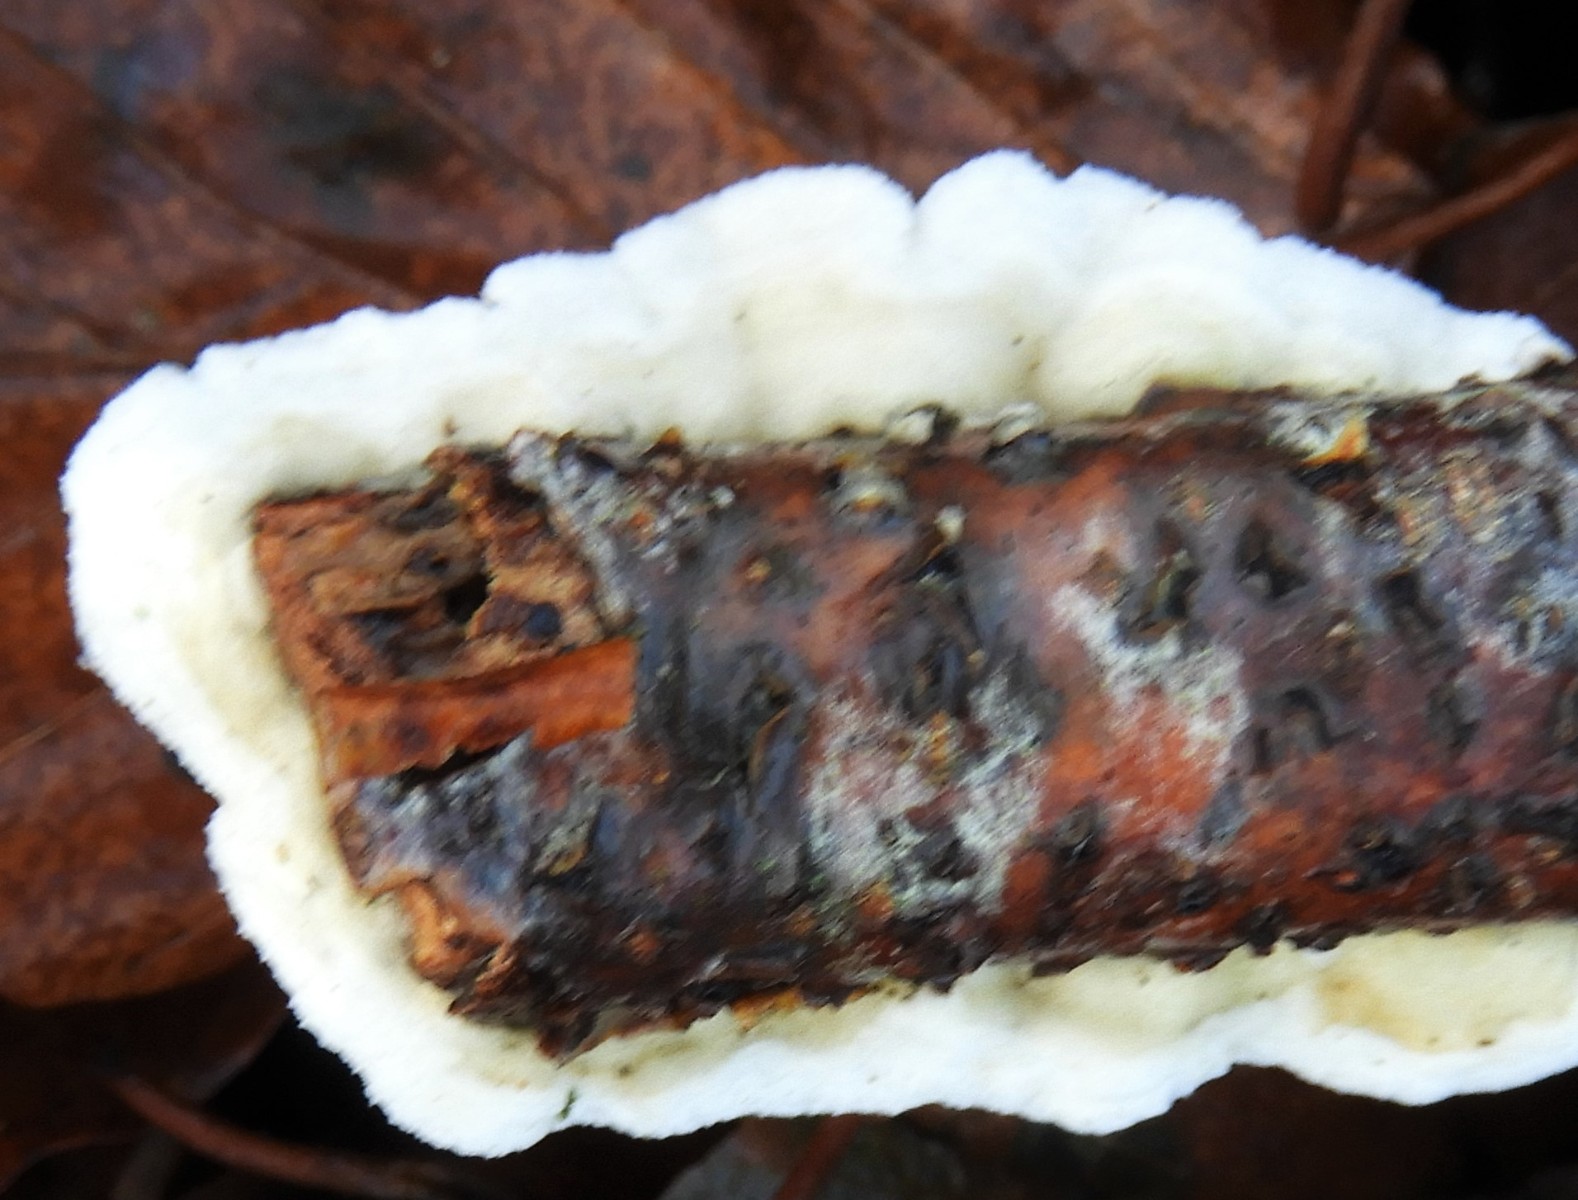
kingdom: Fungi
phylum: Basidiomycota
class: Agaricomycetes
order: Polyporales
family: Irpicaceae
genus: Byssomerulius
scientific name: Byssomerulius corium
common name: læder-åresvamp
